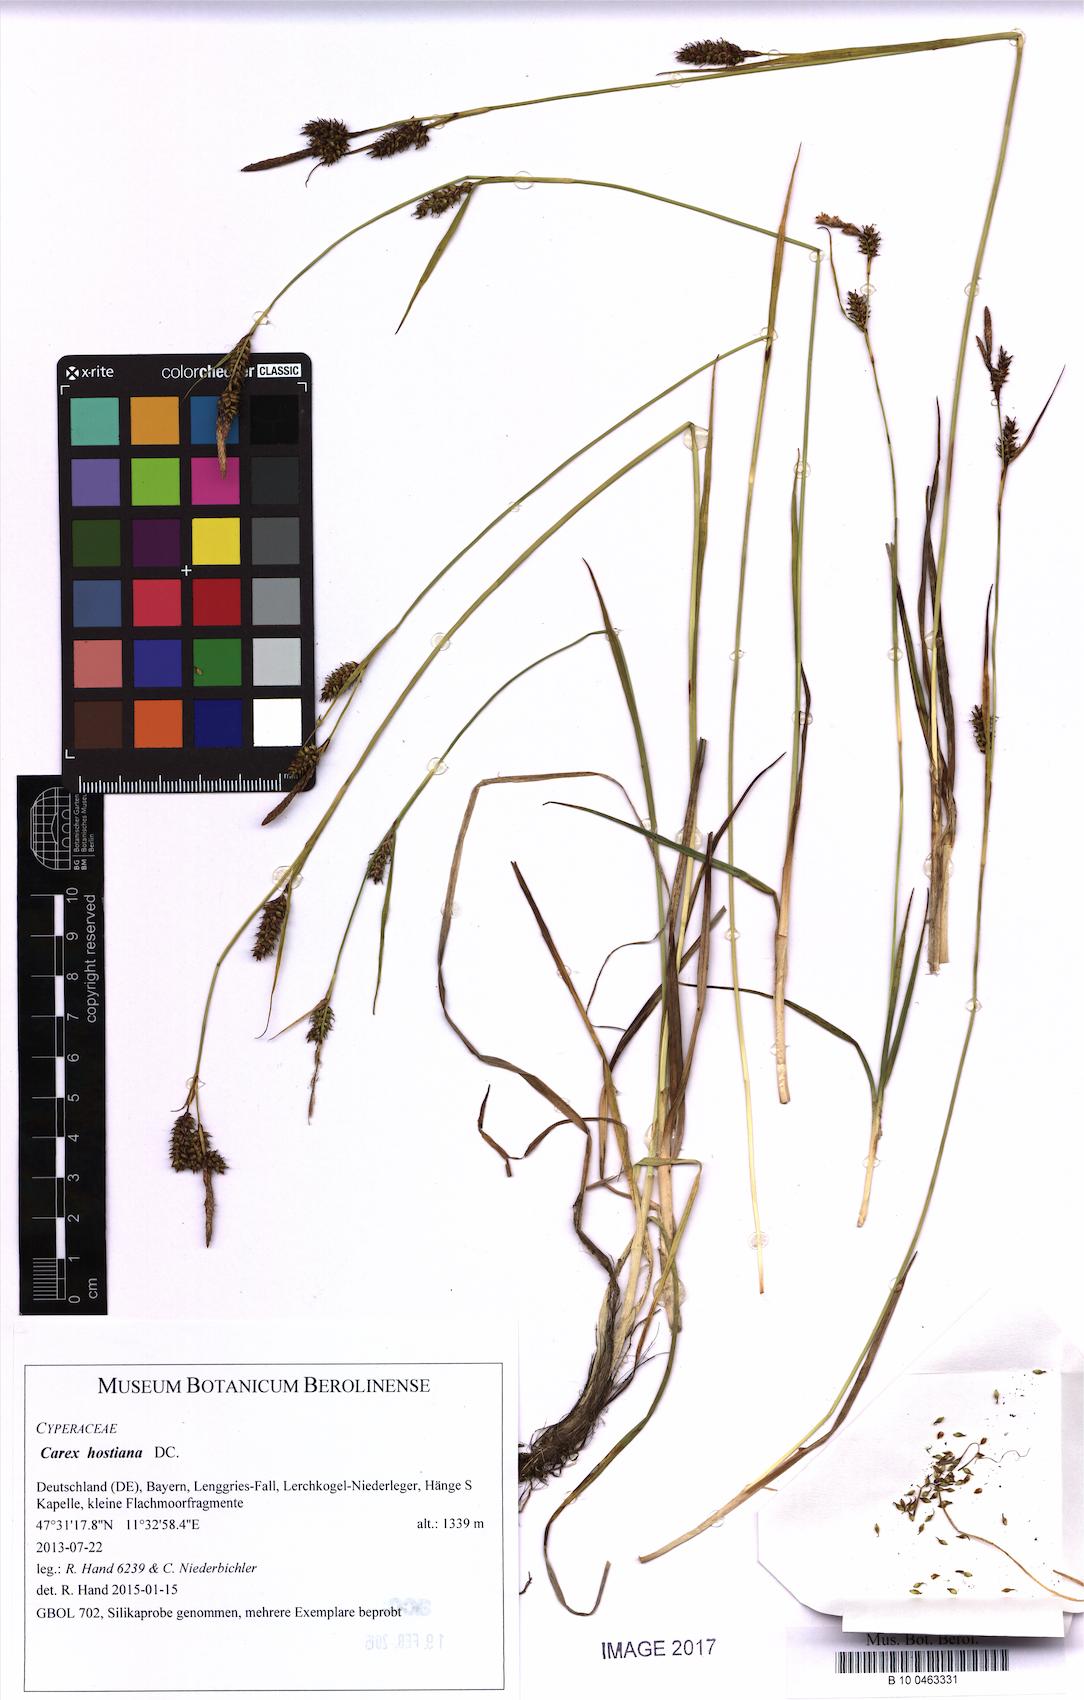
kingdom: Plantae
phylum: Tracheophyta
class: Liliopsida
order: Poales
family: Cyperaceae
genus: Carex
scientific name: Carex hostiana
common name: Tawny sedge
